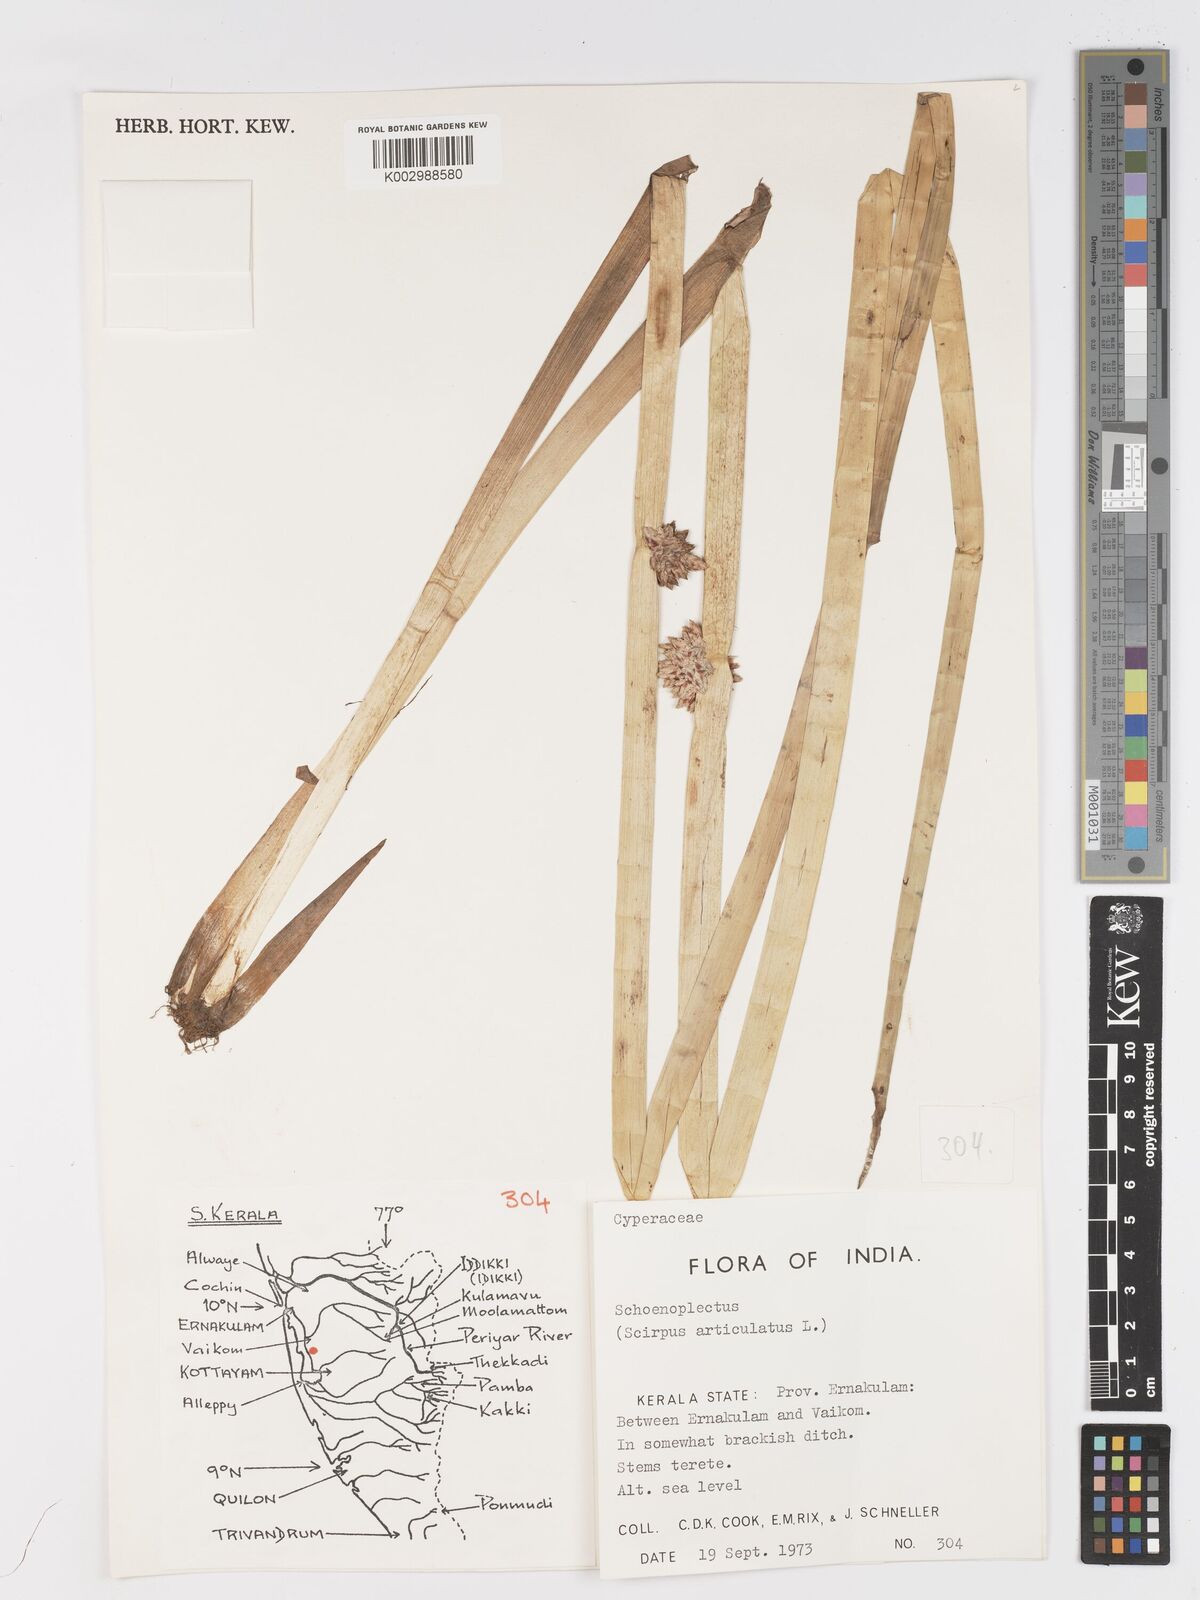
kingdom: Plantae
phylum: Tracheophyta
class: Liliopsida
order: Poales
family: Cyperaceae
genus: Schoenoplectiella
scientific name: Schoenoplectiella articulata
